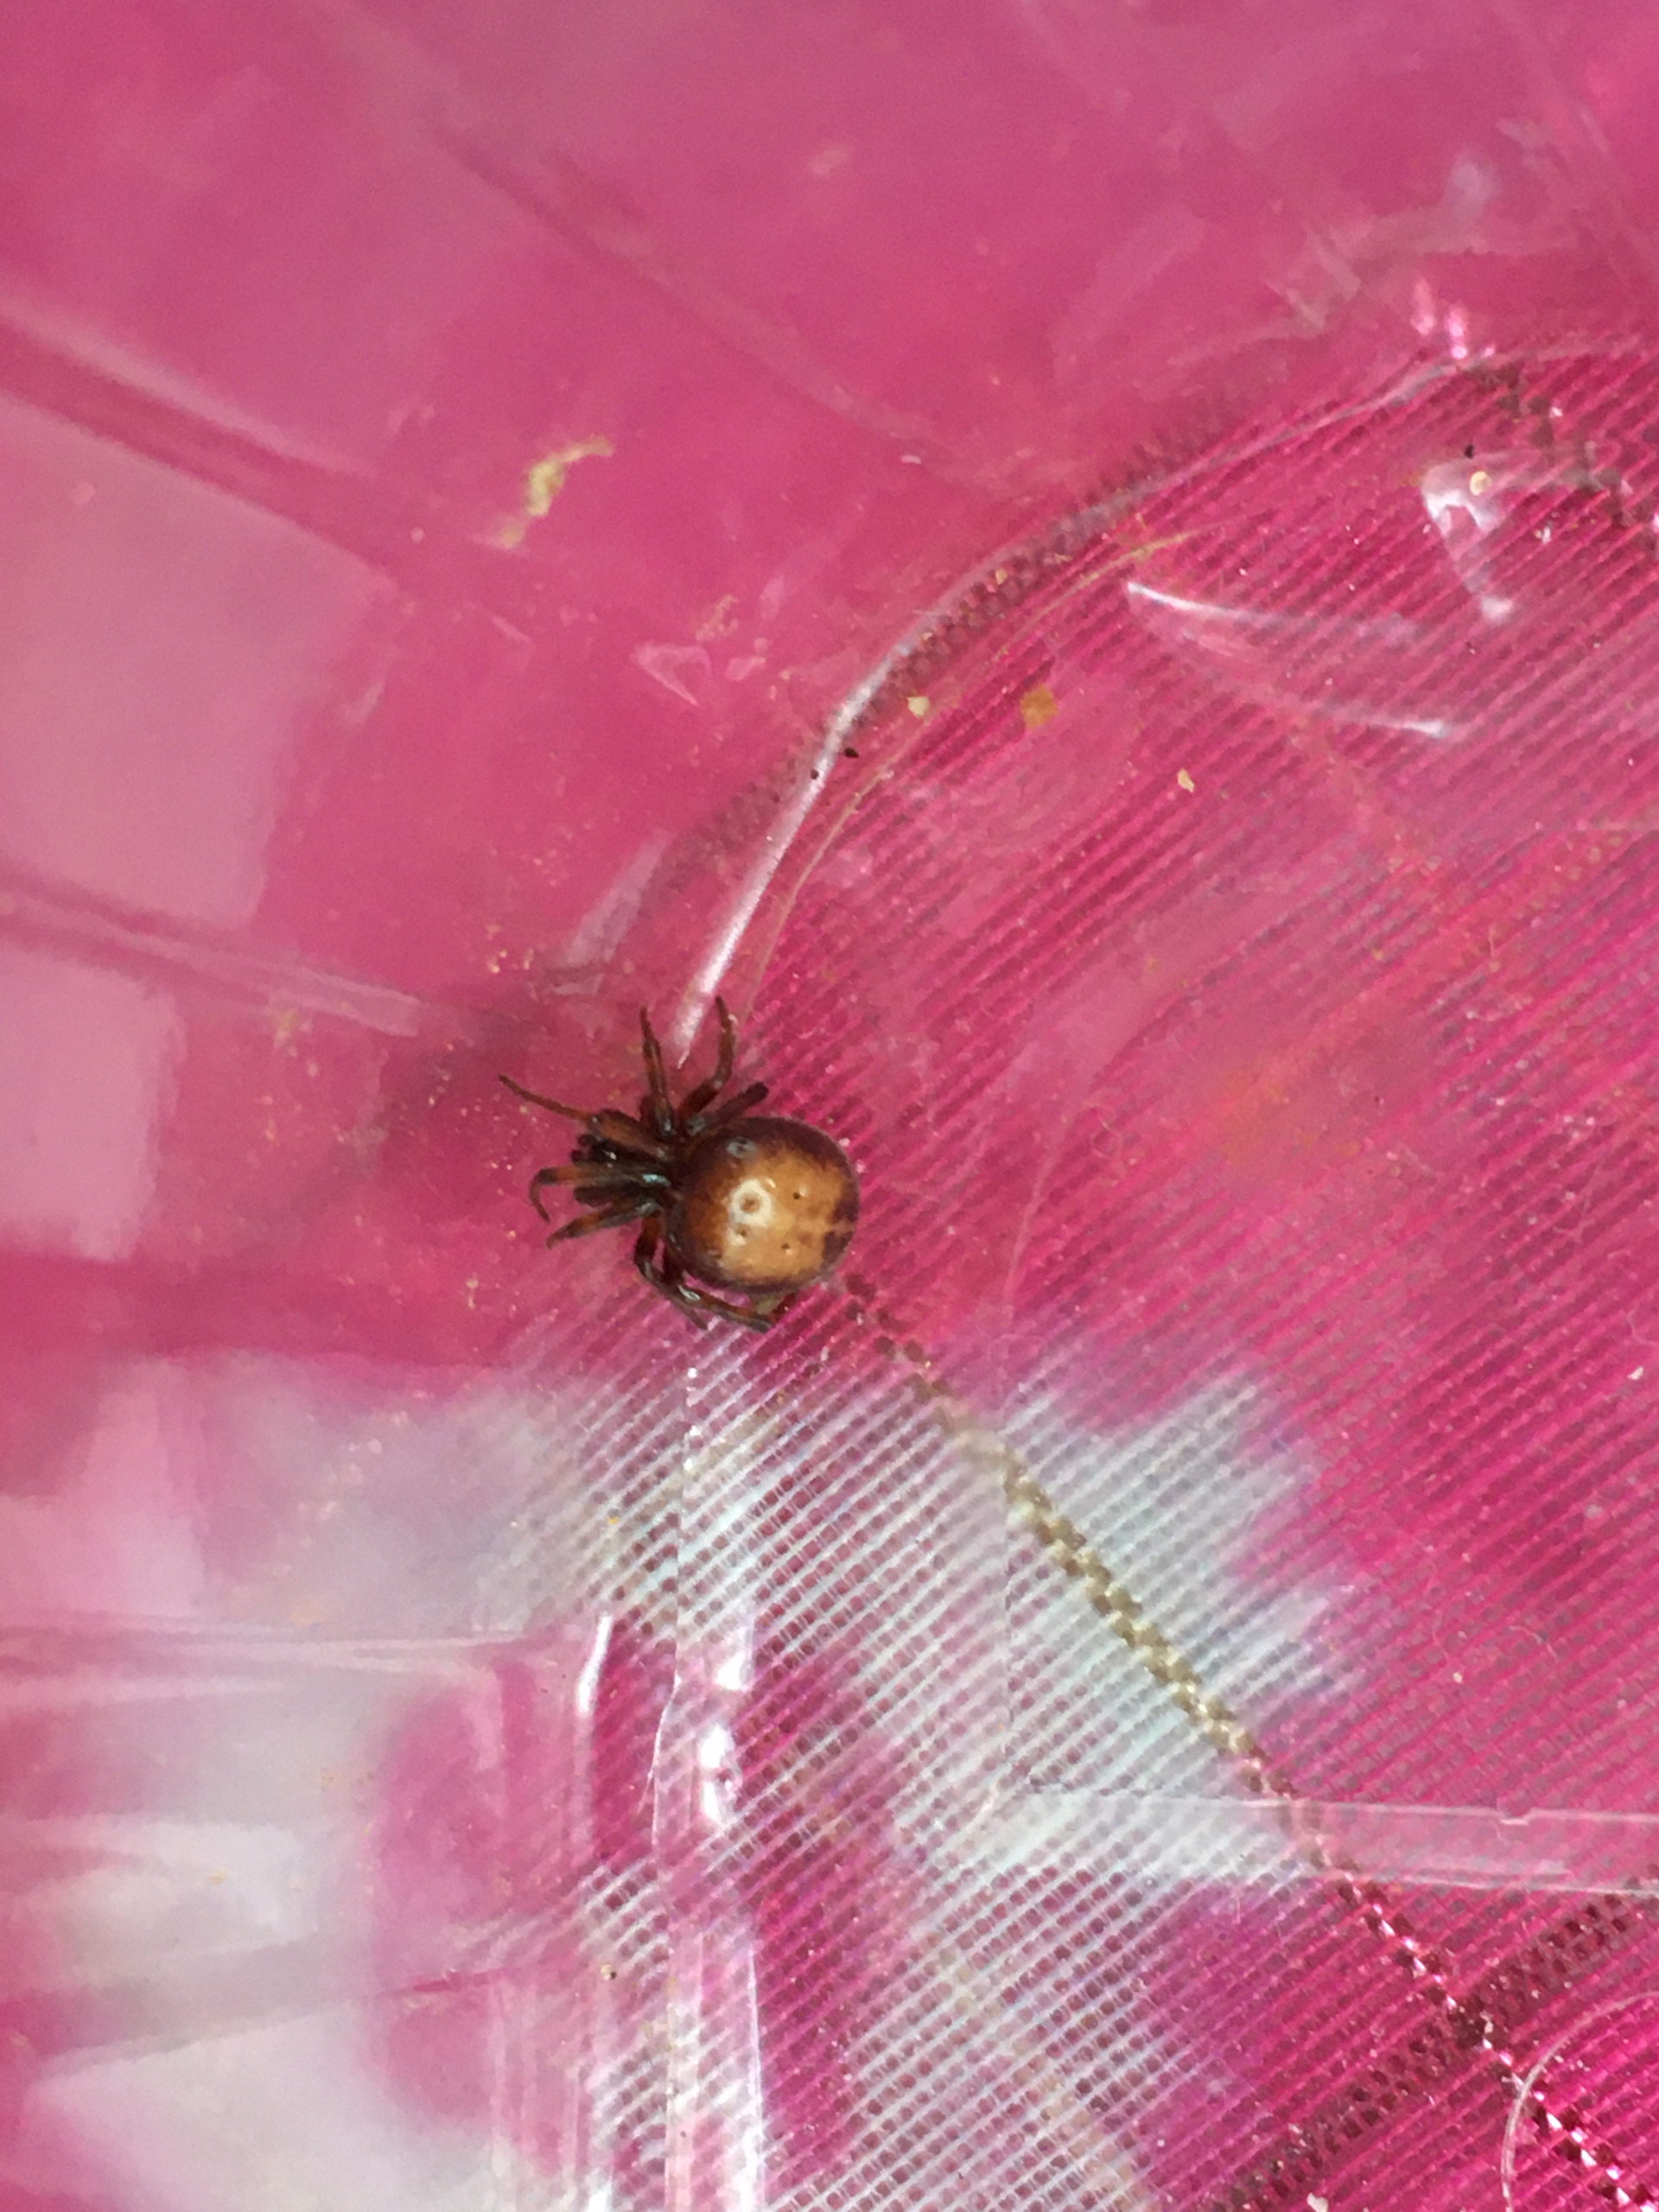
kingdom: Animalia
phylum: Arthropoda
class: Arachnida
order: Araneae
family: Theridiidae
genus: Steatoda
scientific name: Steatoda bipunctata
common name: Fedtedderkop
